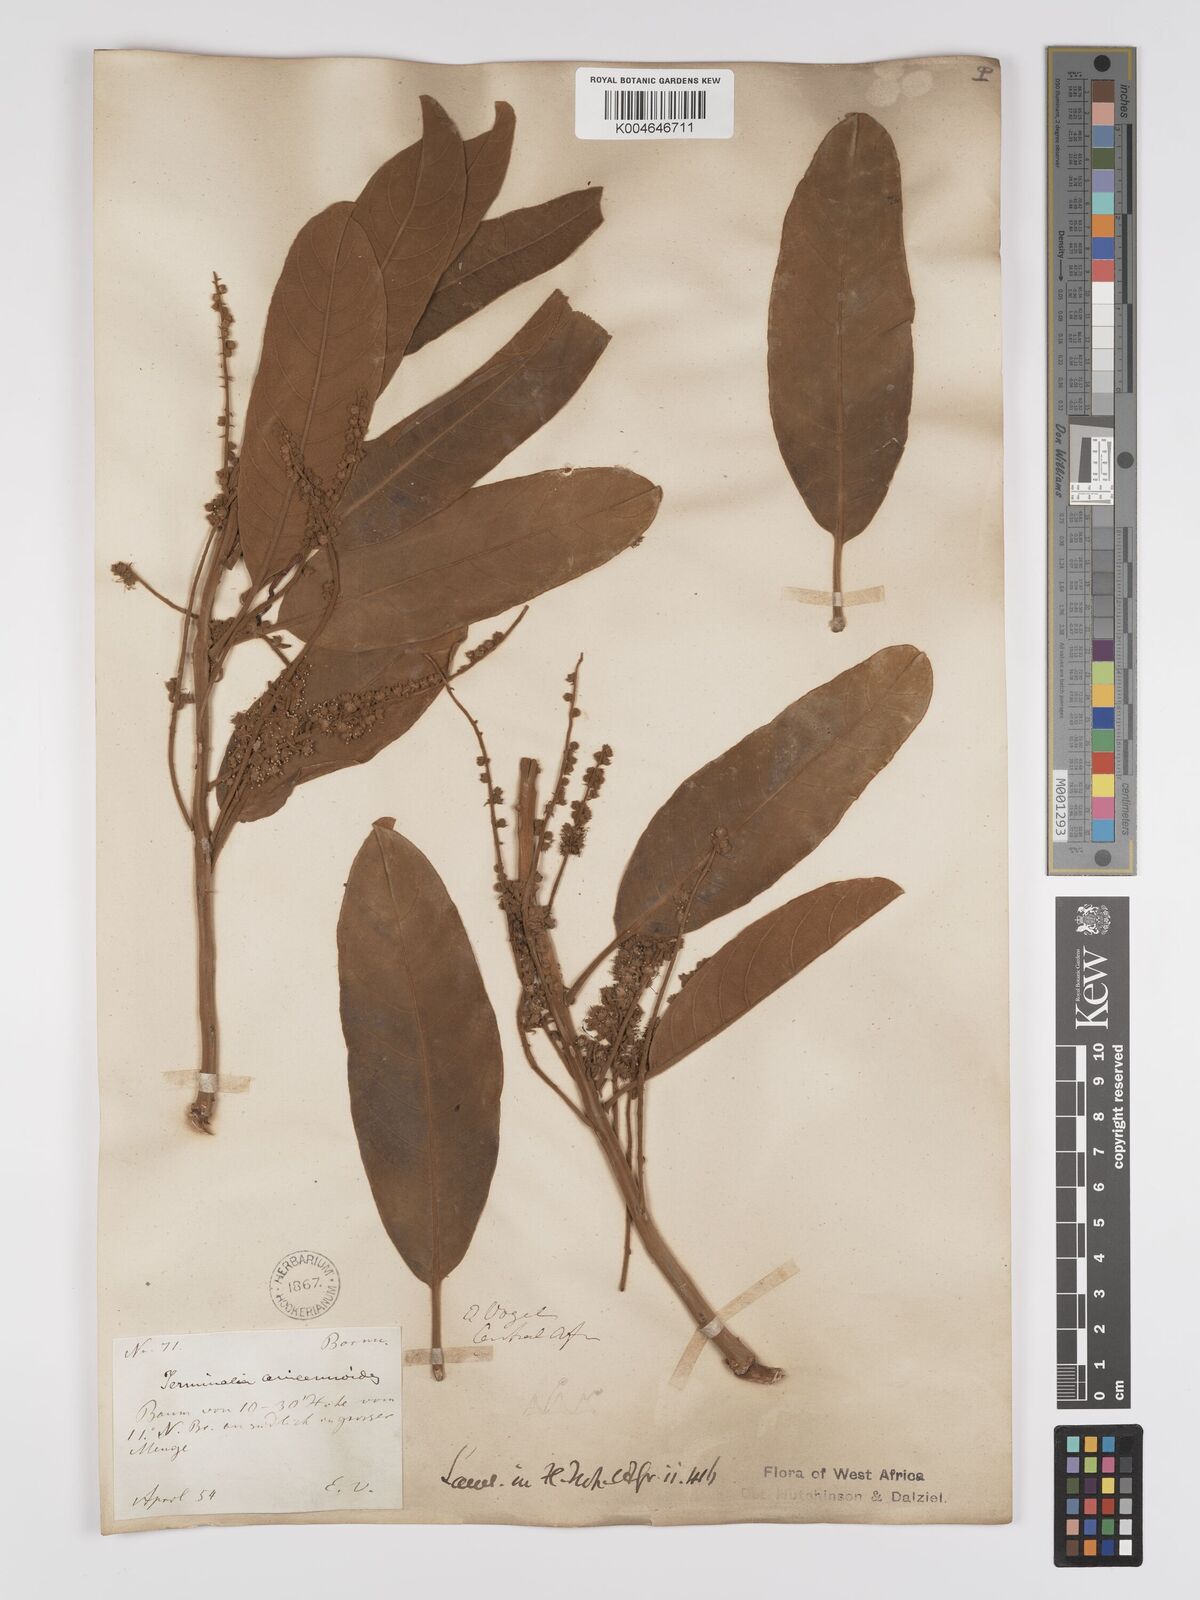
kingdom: Plantae
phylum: Tracheophyta
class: Magnoliopsida
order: Myrtales
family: Combretaceae
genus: Terminalia
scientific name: Terminalia avicennioides
